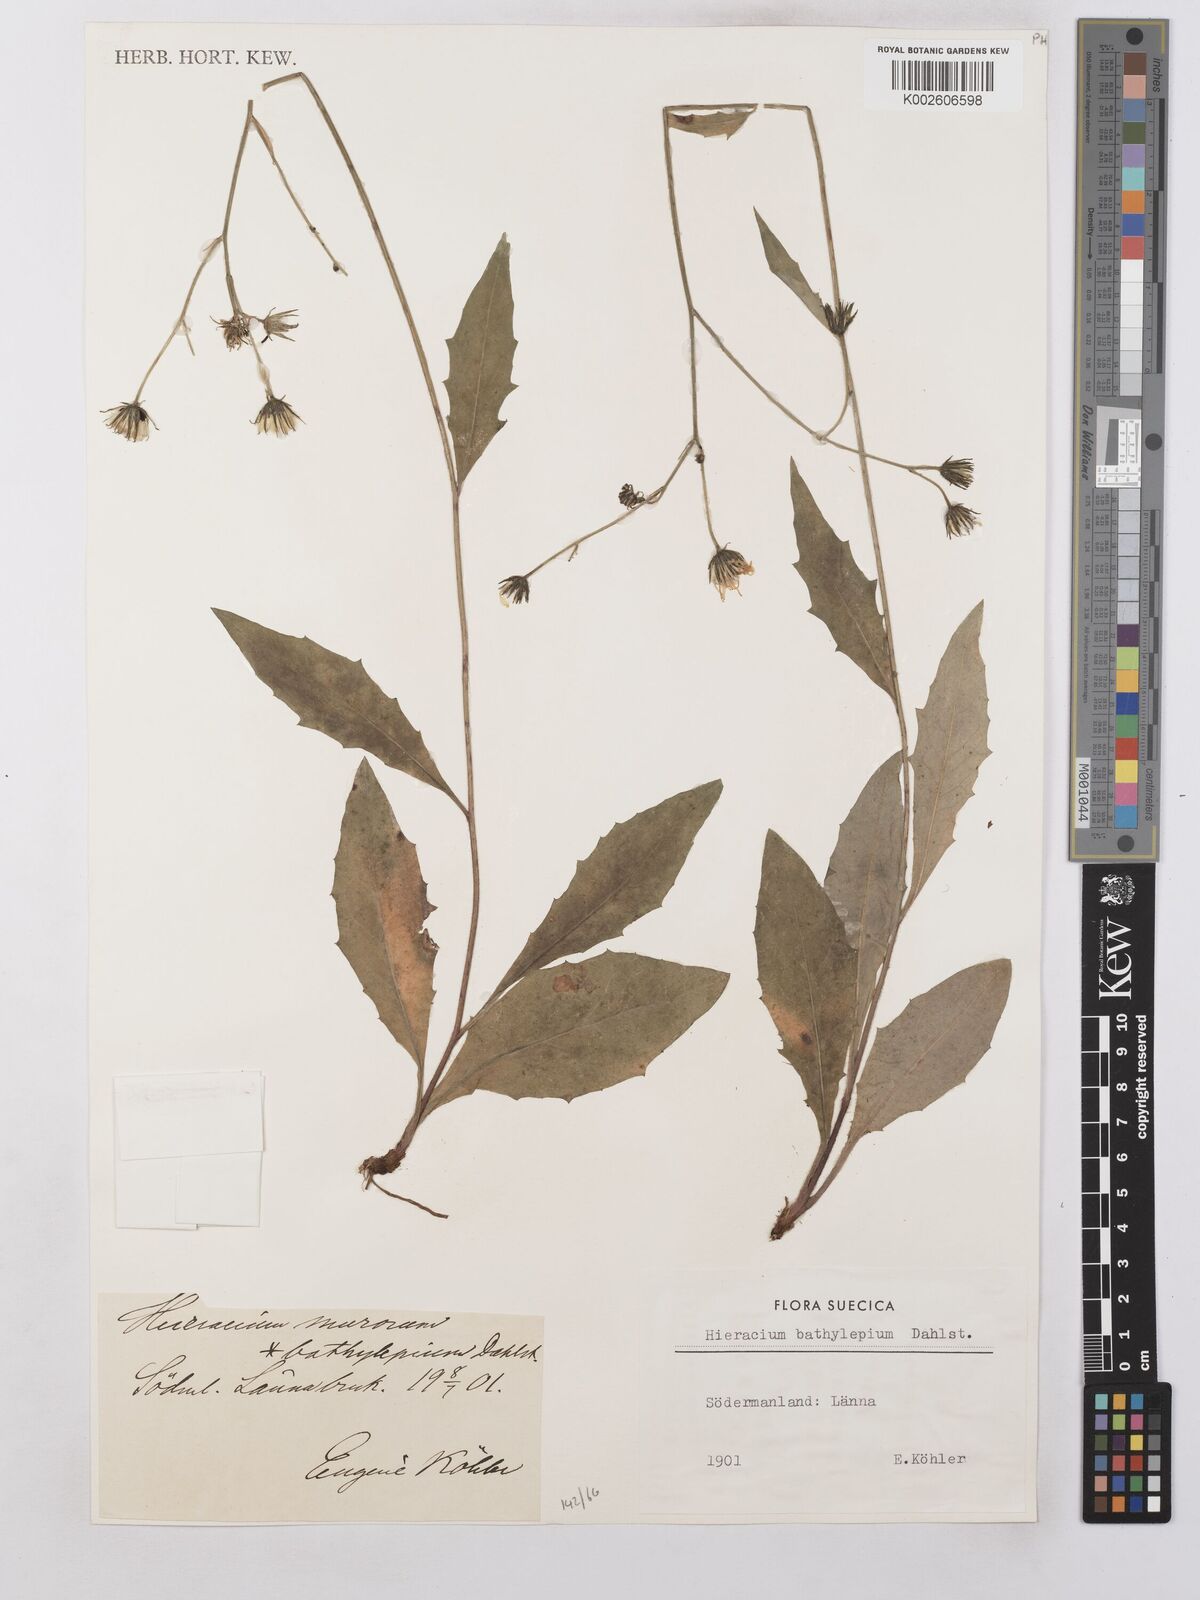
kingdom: Plantae
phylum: Tracheophyta
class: Magnoliopsida
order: Asterales
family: Asteraceae
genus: Hieracium
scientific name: Hieracium lachenalii
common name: Common hawkweed
